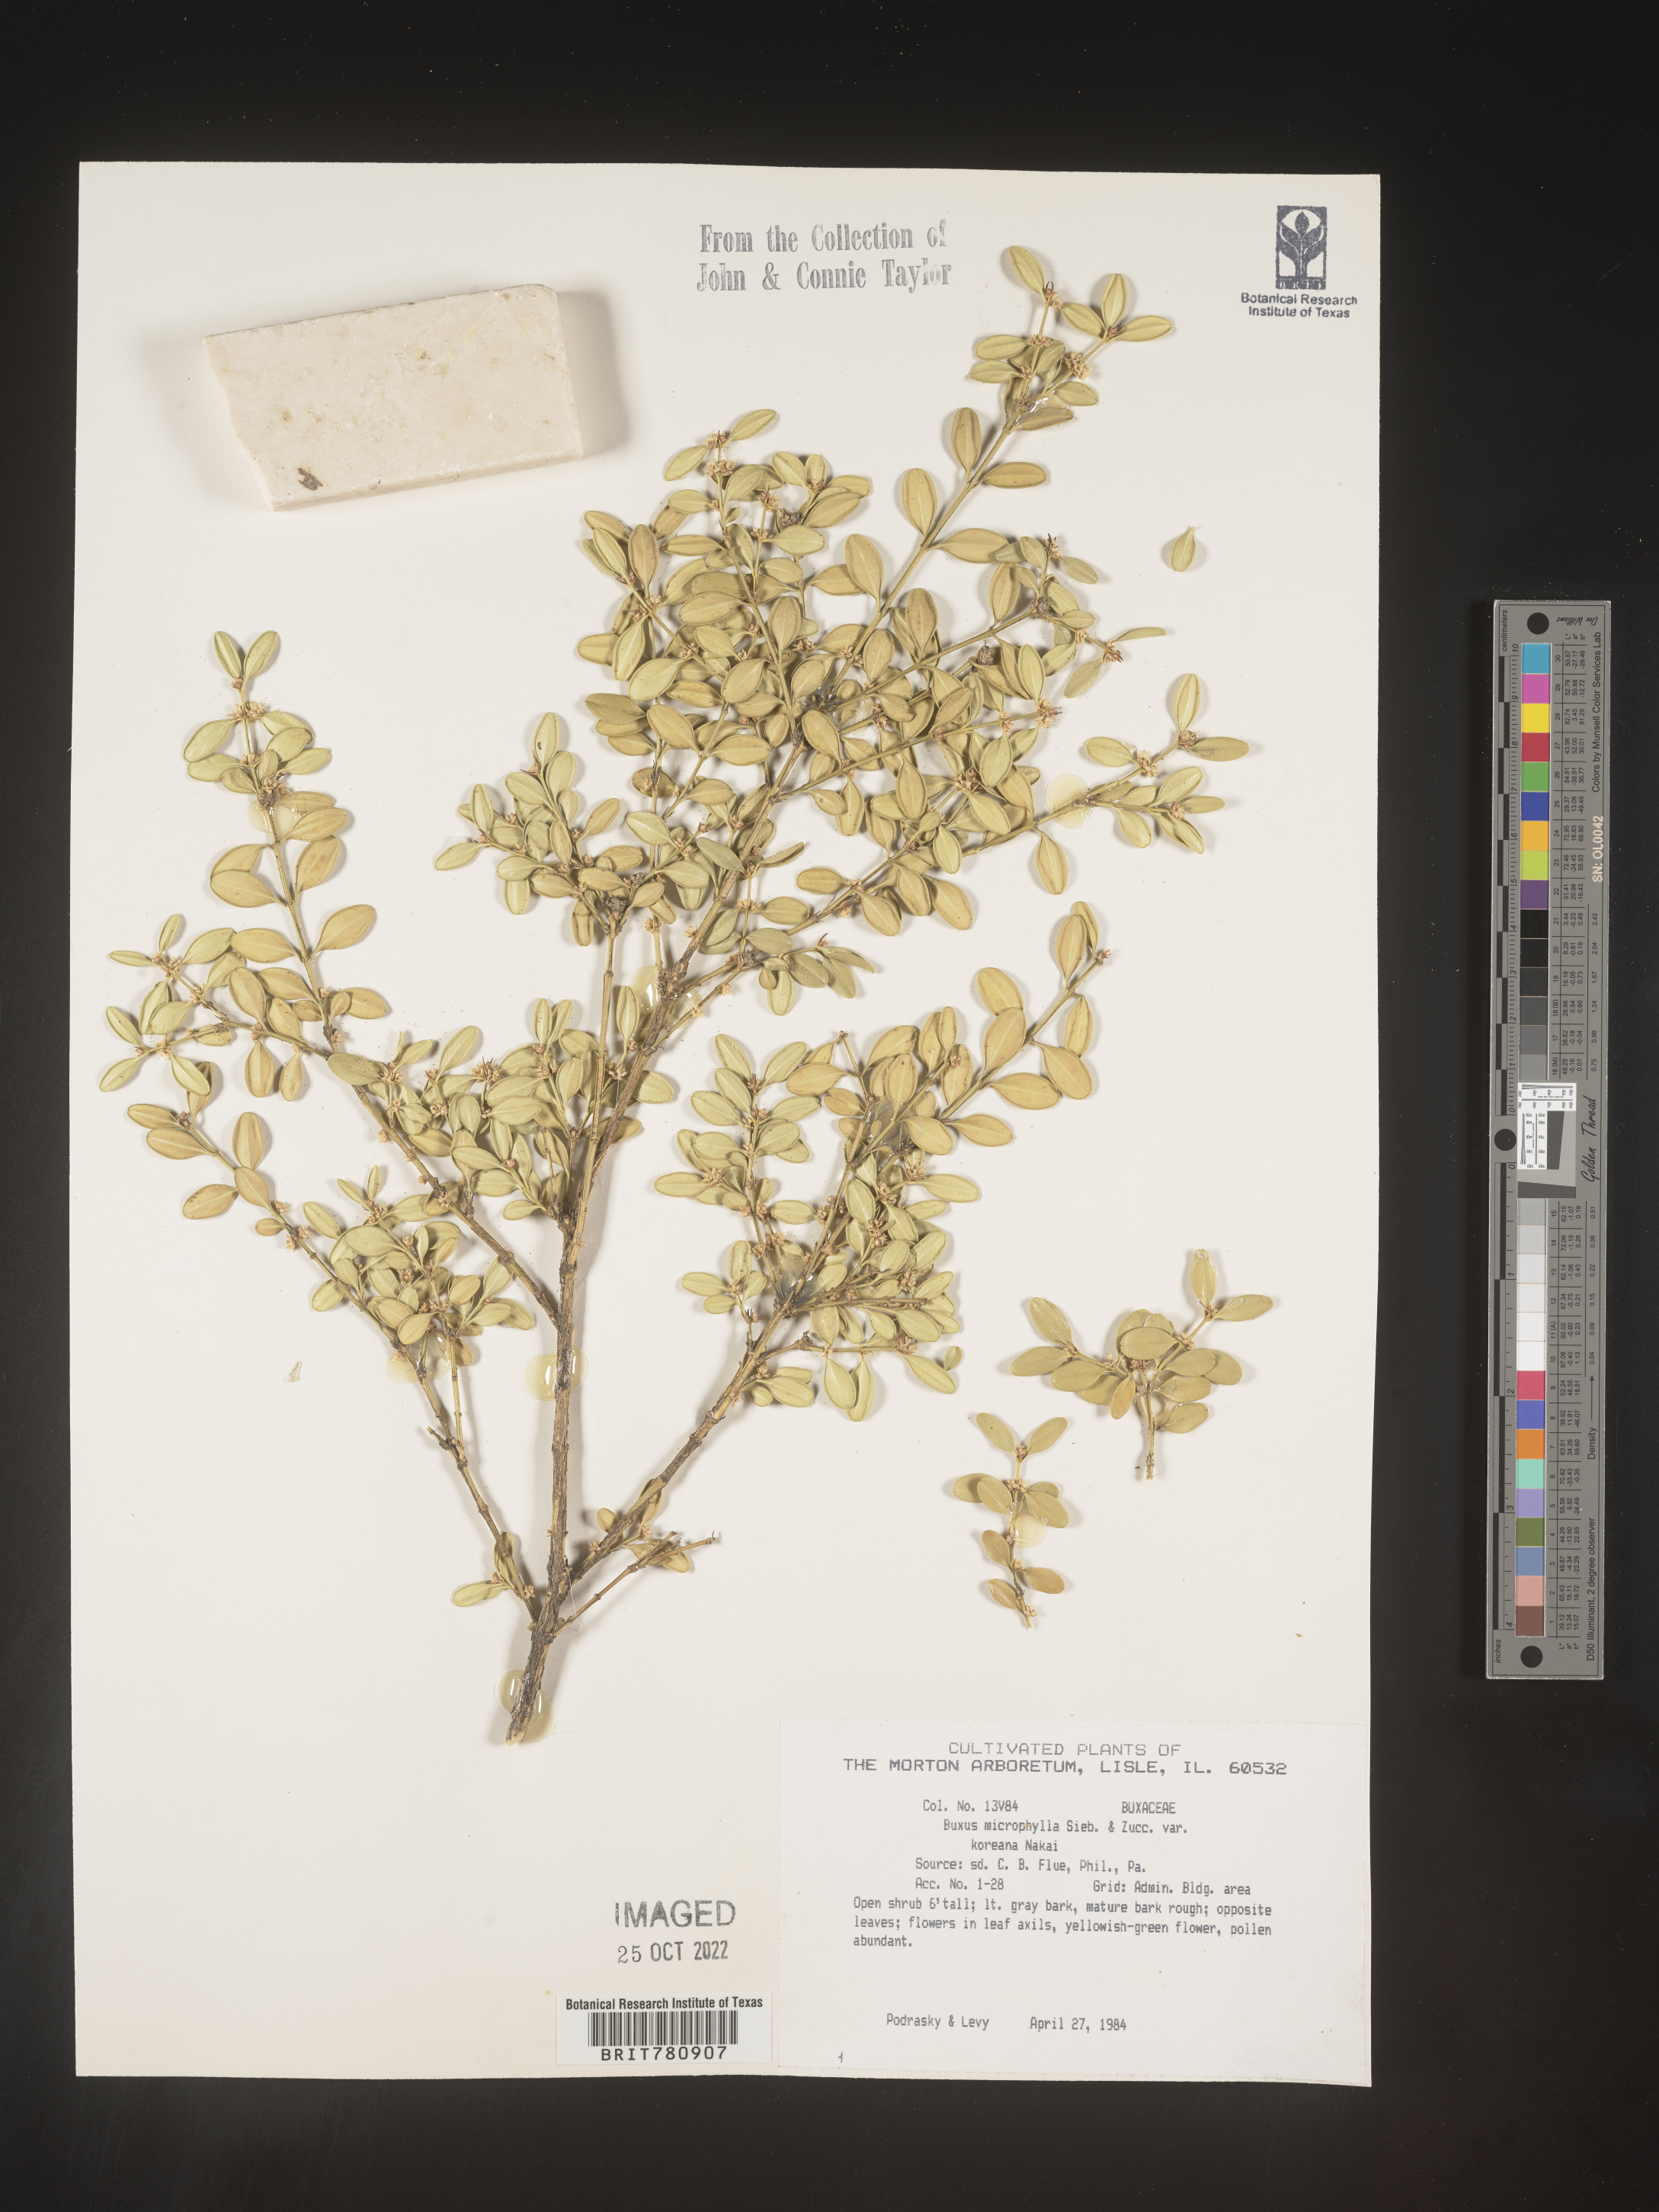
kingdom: Plantae
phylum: Tracheophyta
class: Magnoliopsida
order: Buxales
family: Buxaceae
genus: Buxus
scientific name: Buxus
